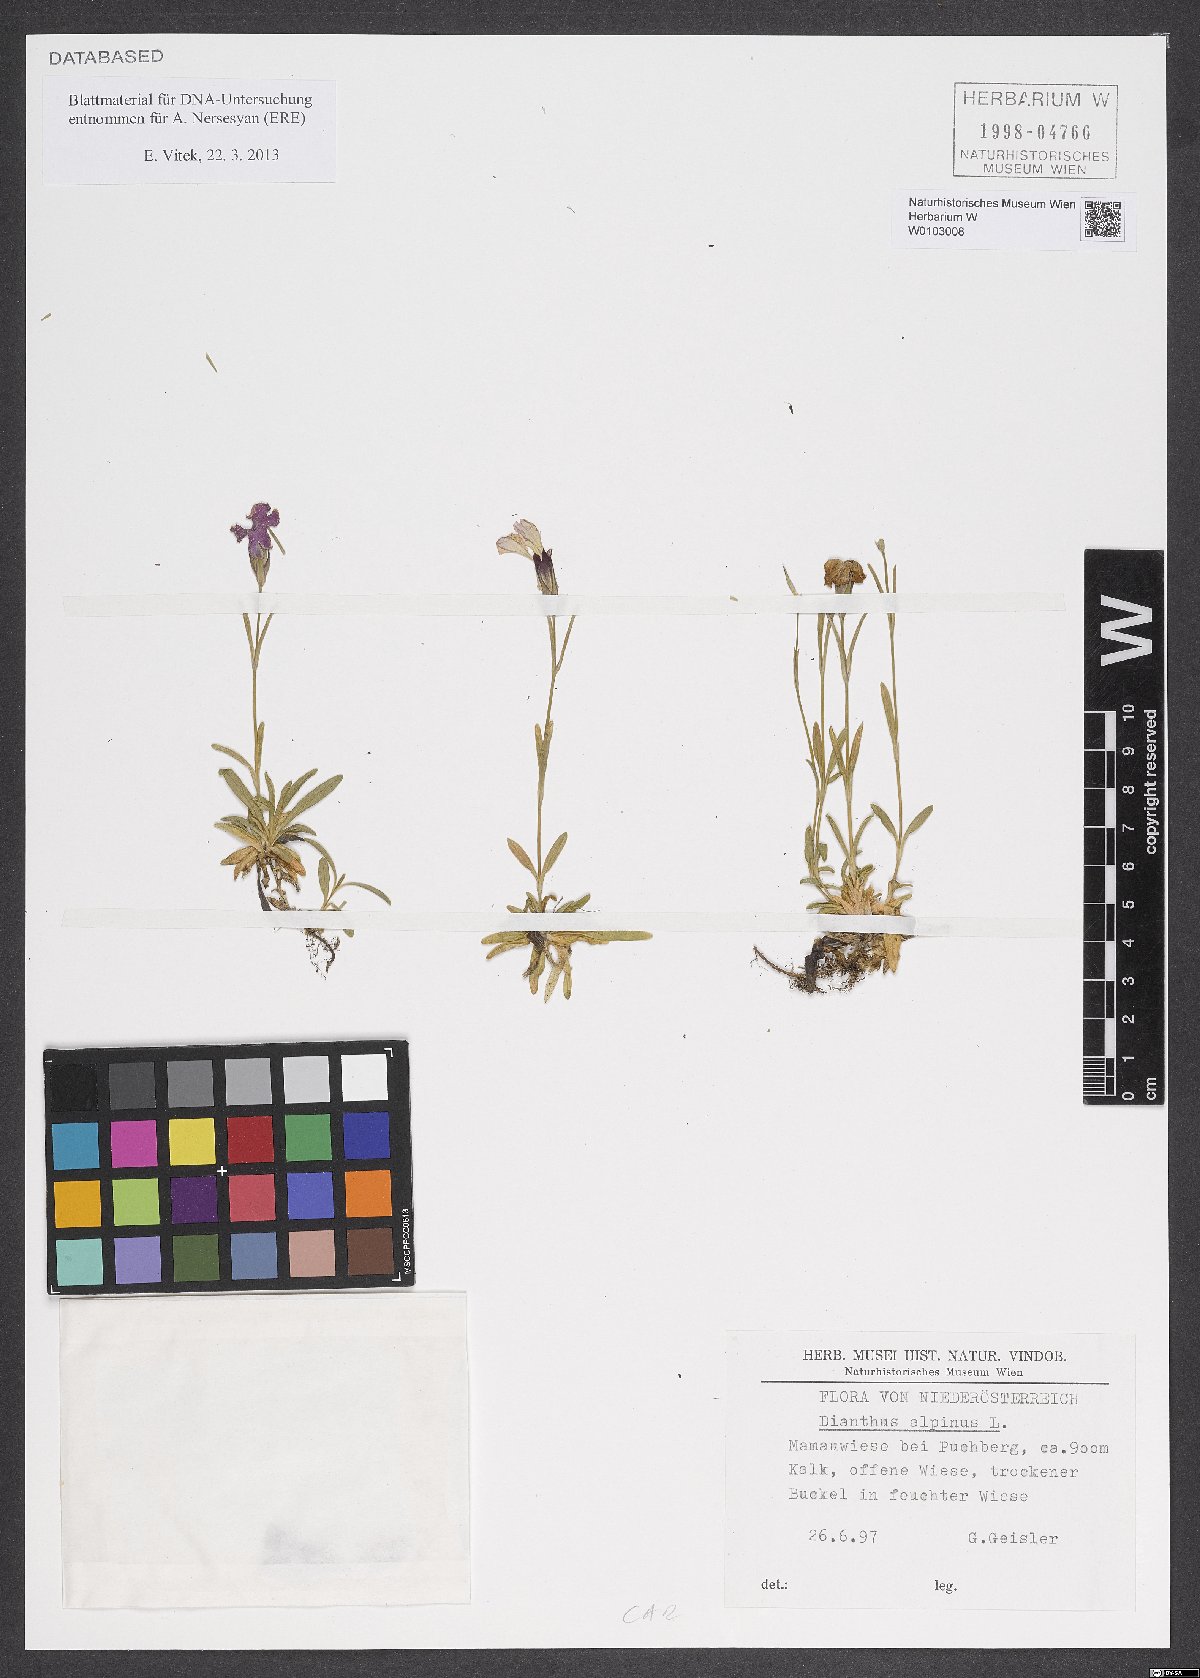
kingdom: Plantae
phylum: Tracheophyta
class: Magnoliopsida
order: Caryophyllales
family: Caryophyllaceae
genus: Dianthus
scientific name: Dianthus alpinus
